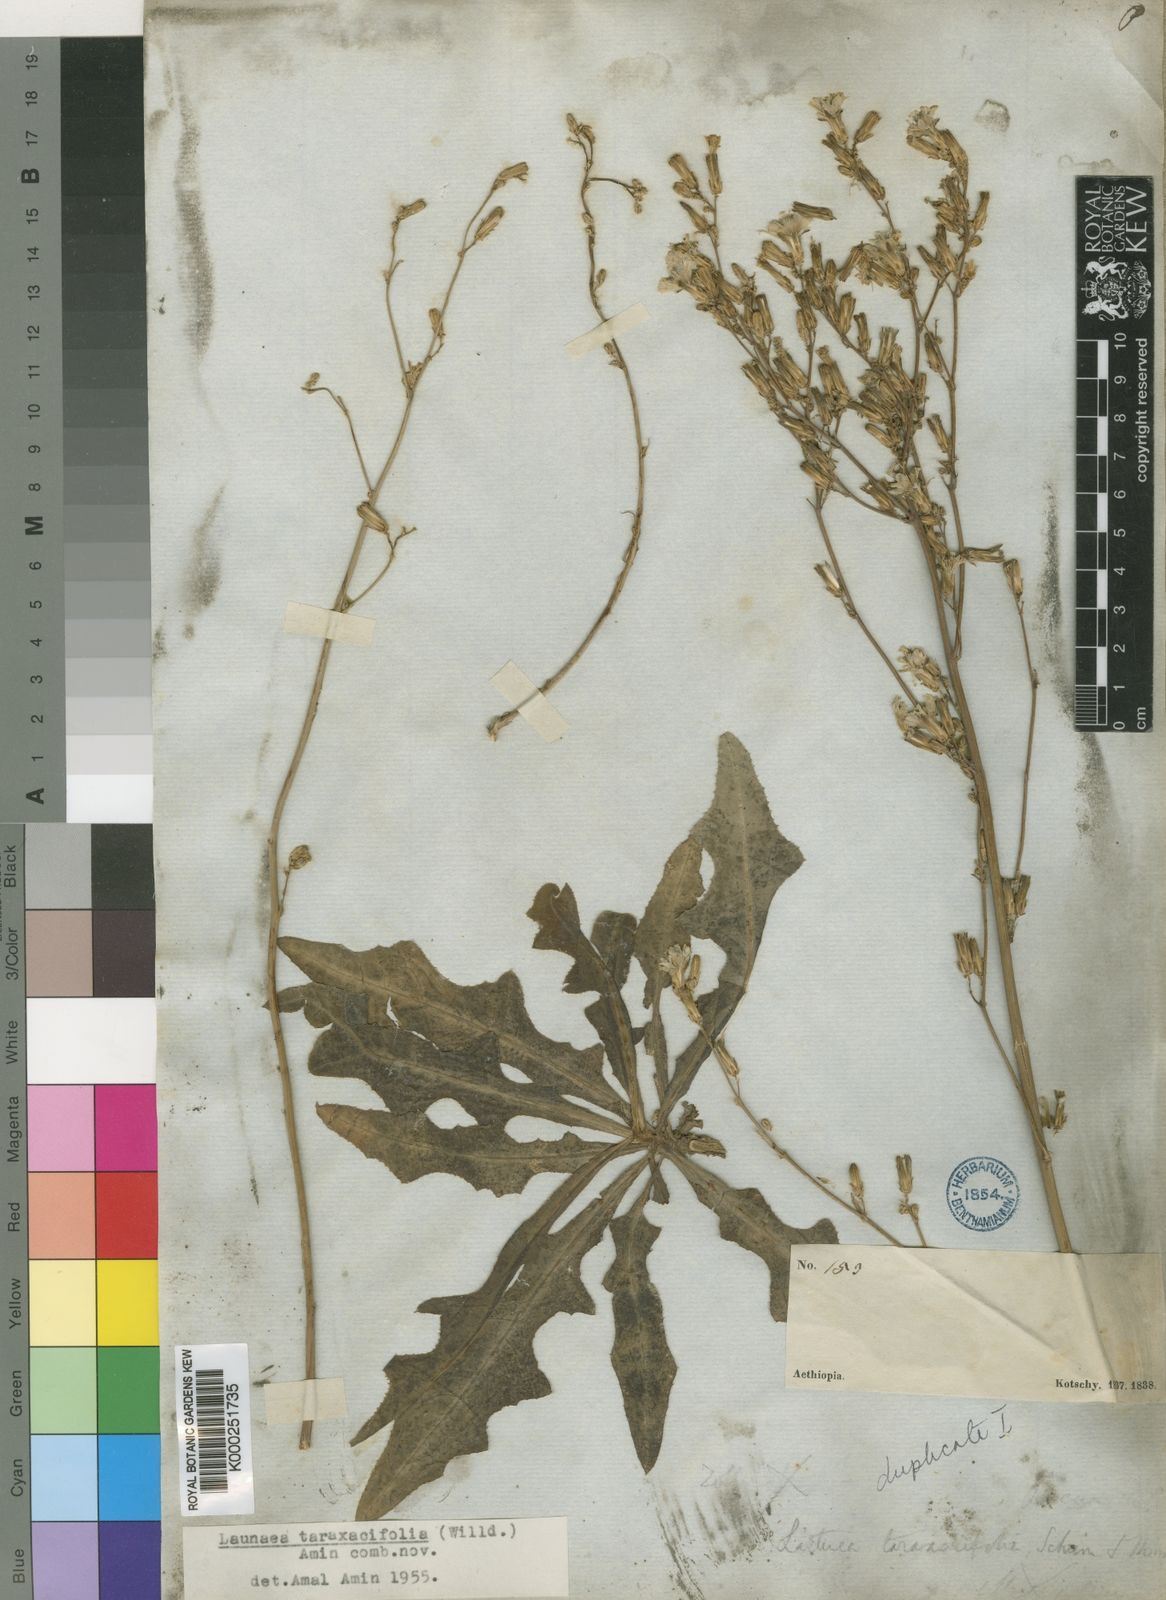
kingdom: Plantae
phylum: Tracheophyta
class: Magnoliopsida
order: Asterales
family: Asteraceae
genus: Launaea
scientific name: Launaea taraxacifolia
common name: African-lettuce
